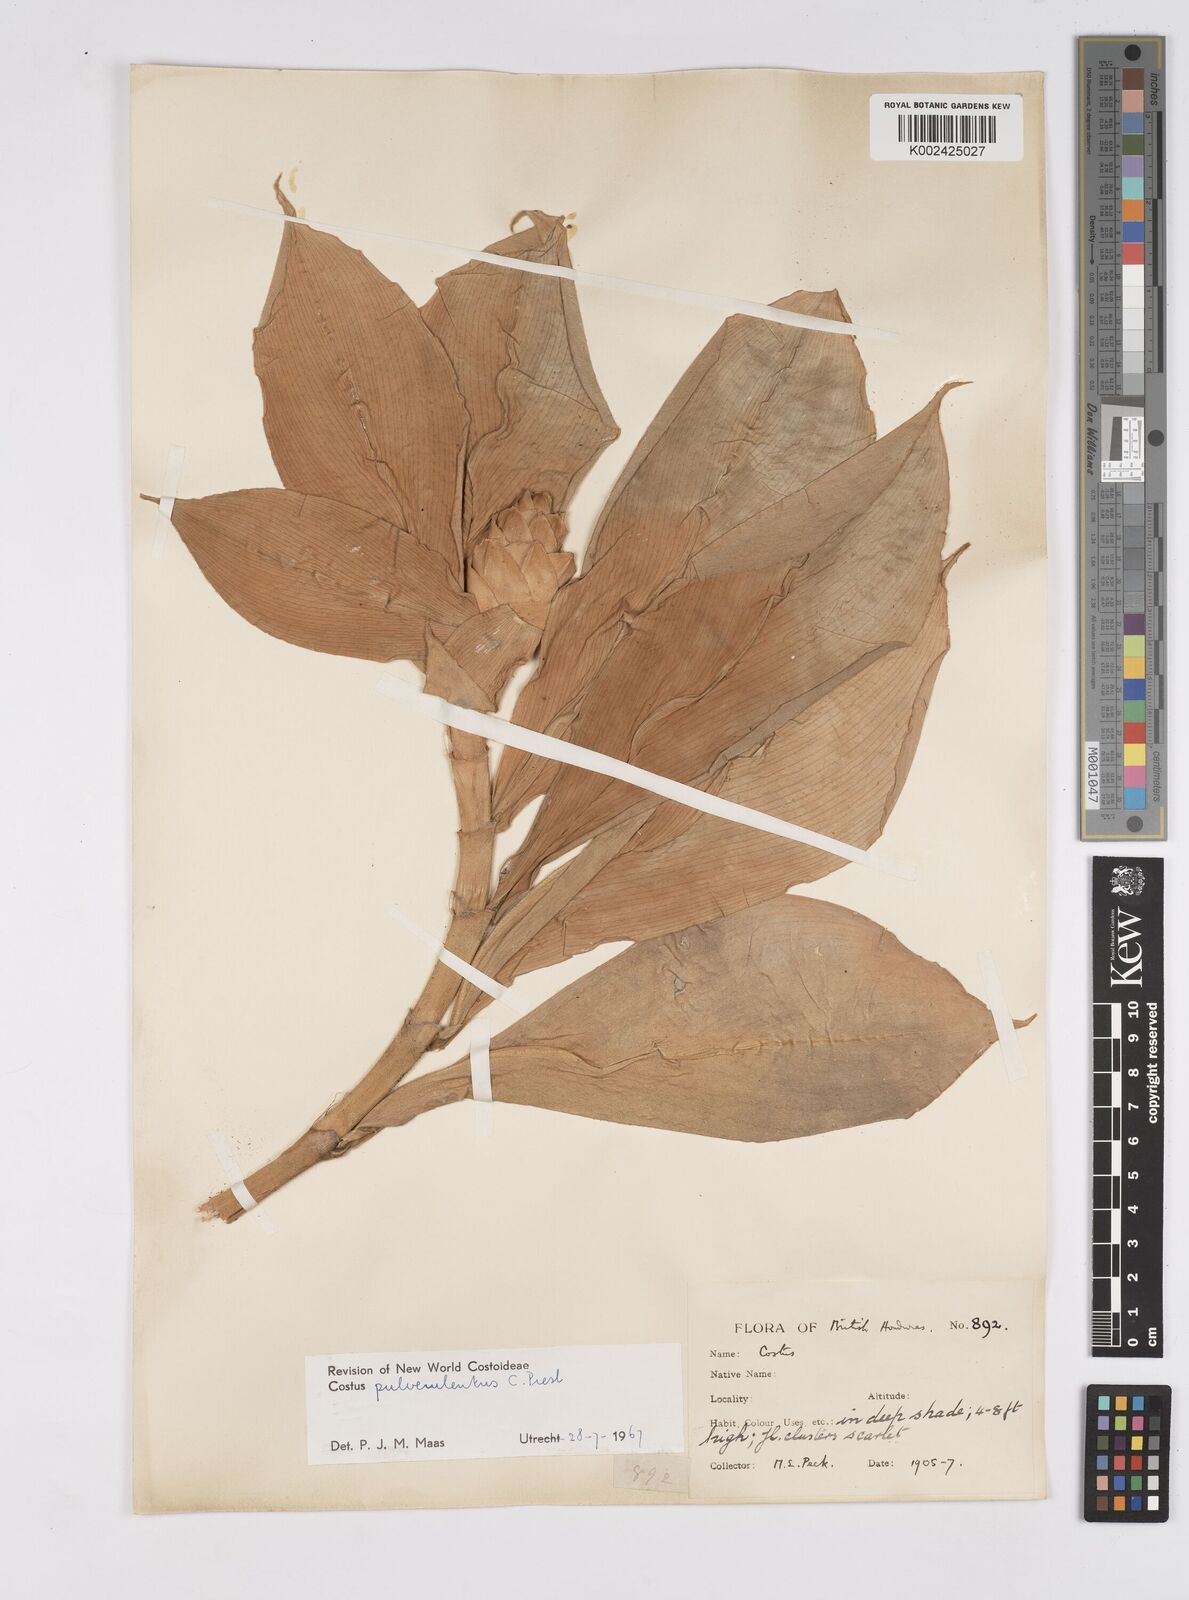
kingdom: Plantae
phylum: Tracheophyta
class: Liliopsida
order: Zingiberales
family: Costaceae
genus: Costus
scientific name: Costus pulverulentus
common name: Spiral ginger
